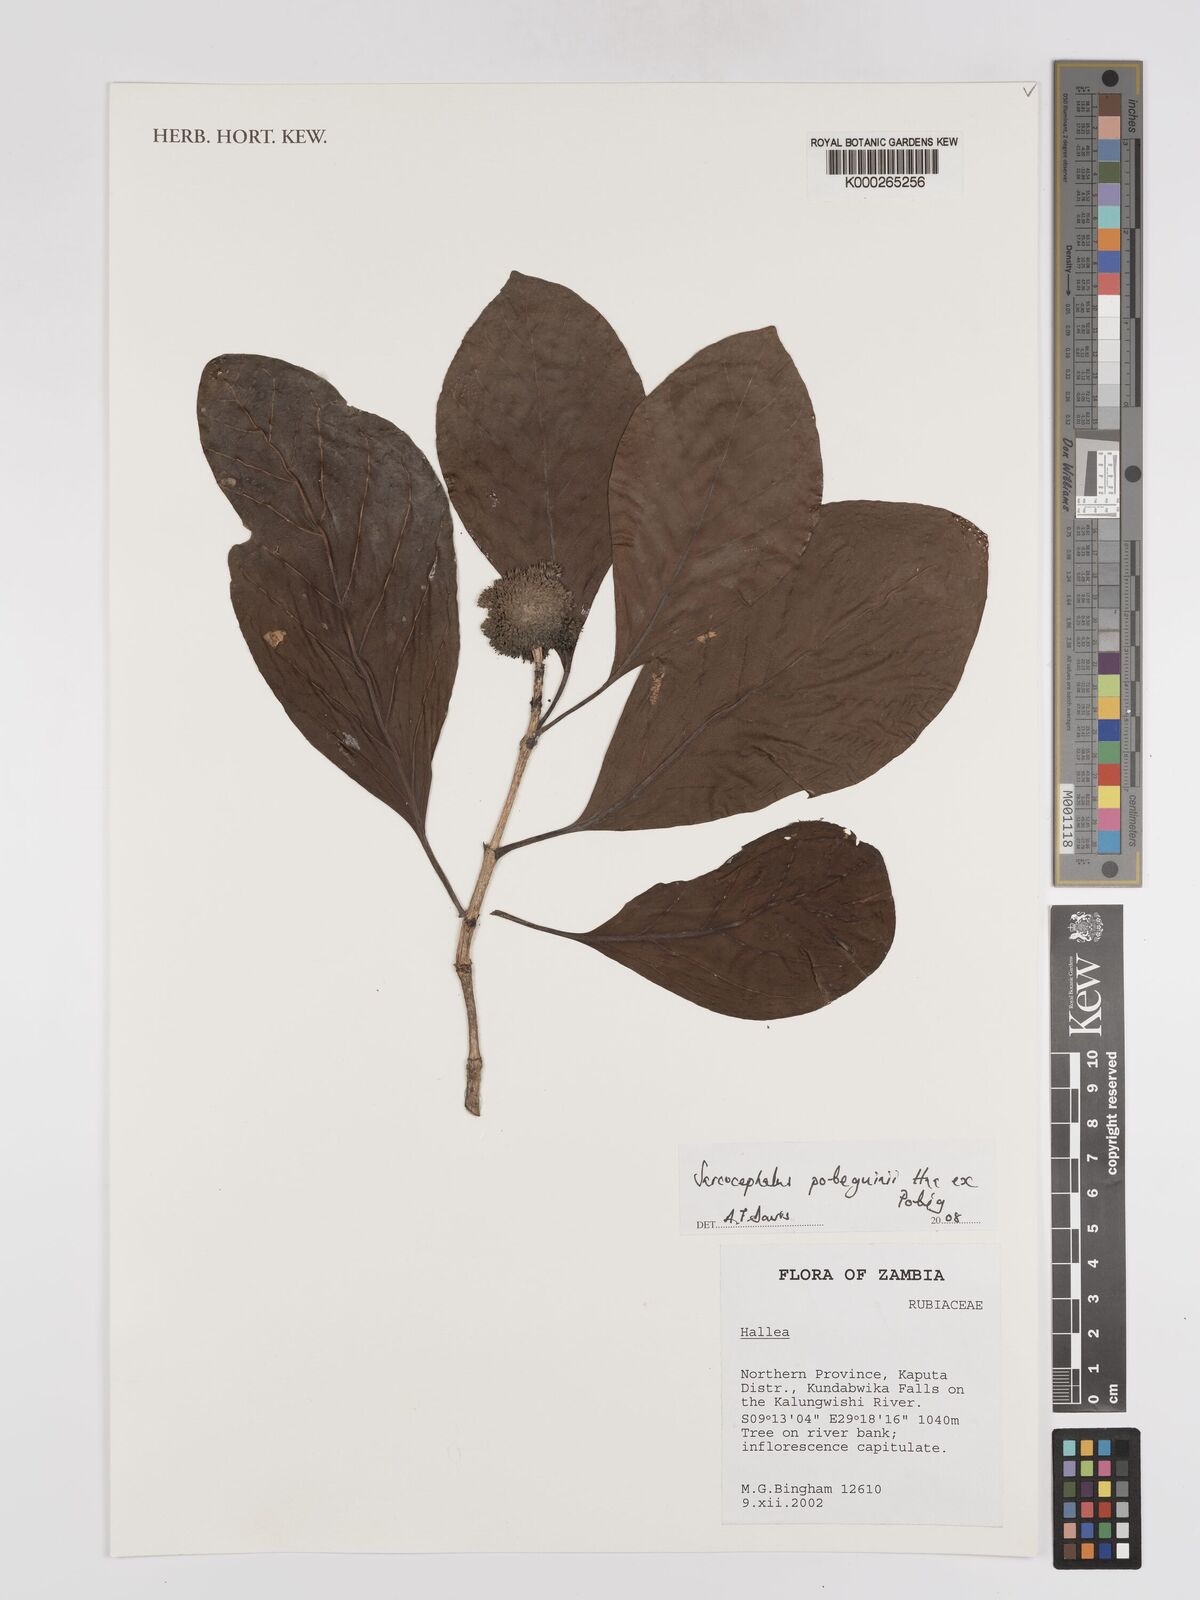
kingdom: Plantae
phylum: Tracheophyta
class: Magnoliopsida
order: Gentianales
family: Rubiaceae
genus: Nauclea
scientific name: Nauclea
